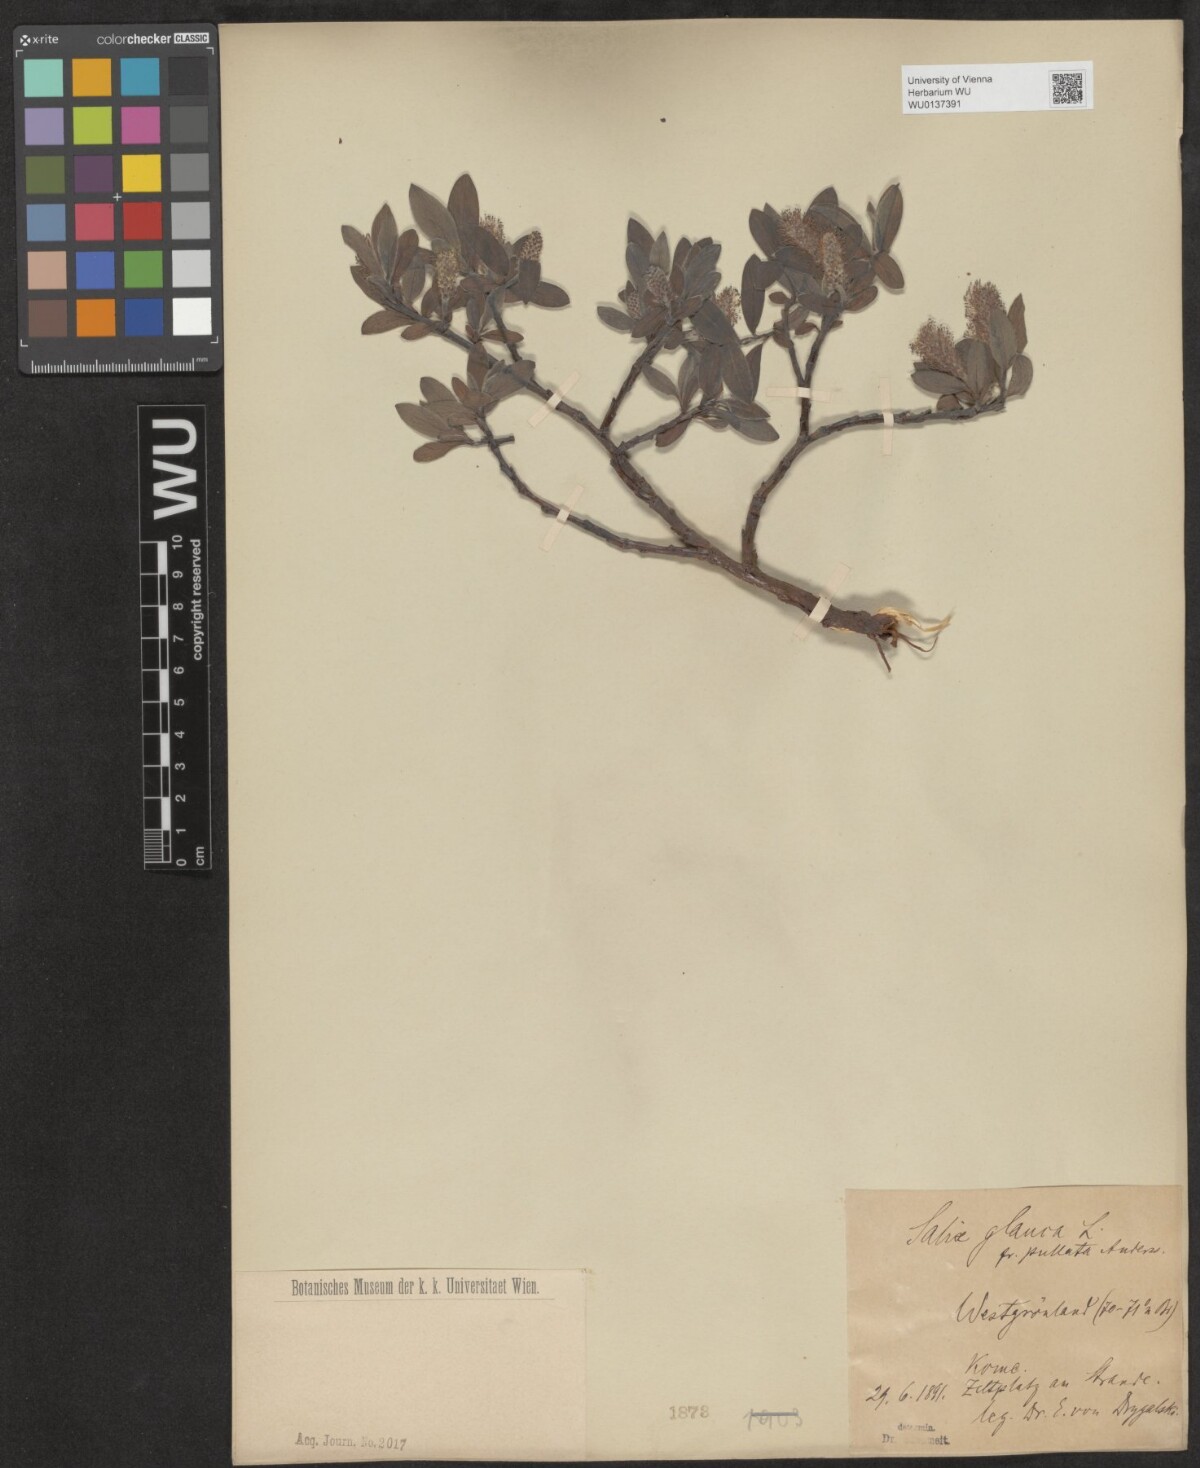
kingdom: Plantae
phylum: Tracheophyta
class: Magnoliopsida
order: Malpighiales
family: Salicaceae
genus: Salix
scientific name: Salix glauca
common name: Glaucous willow
